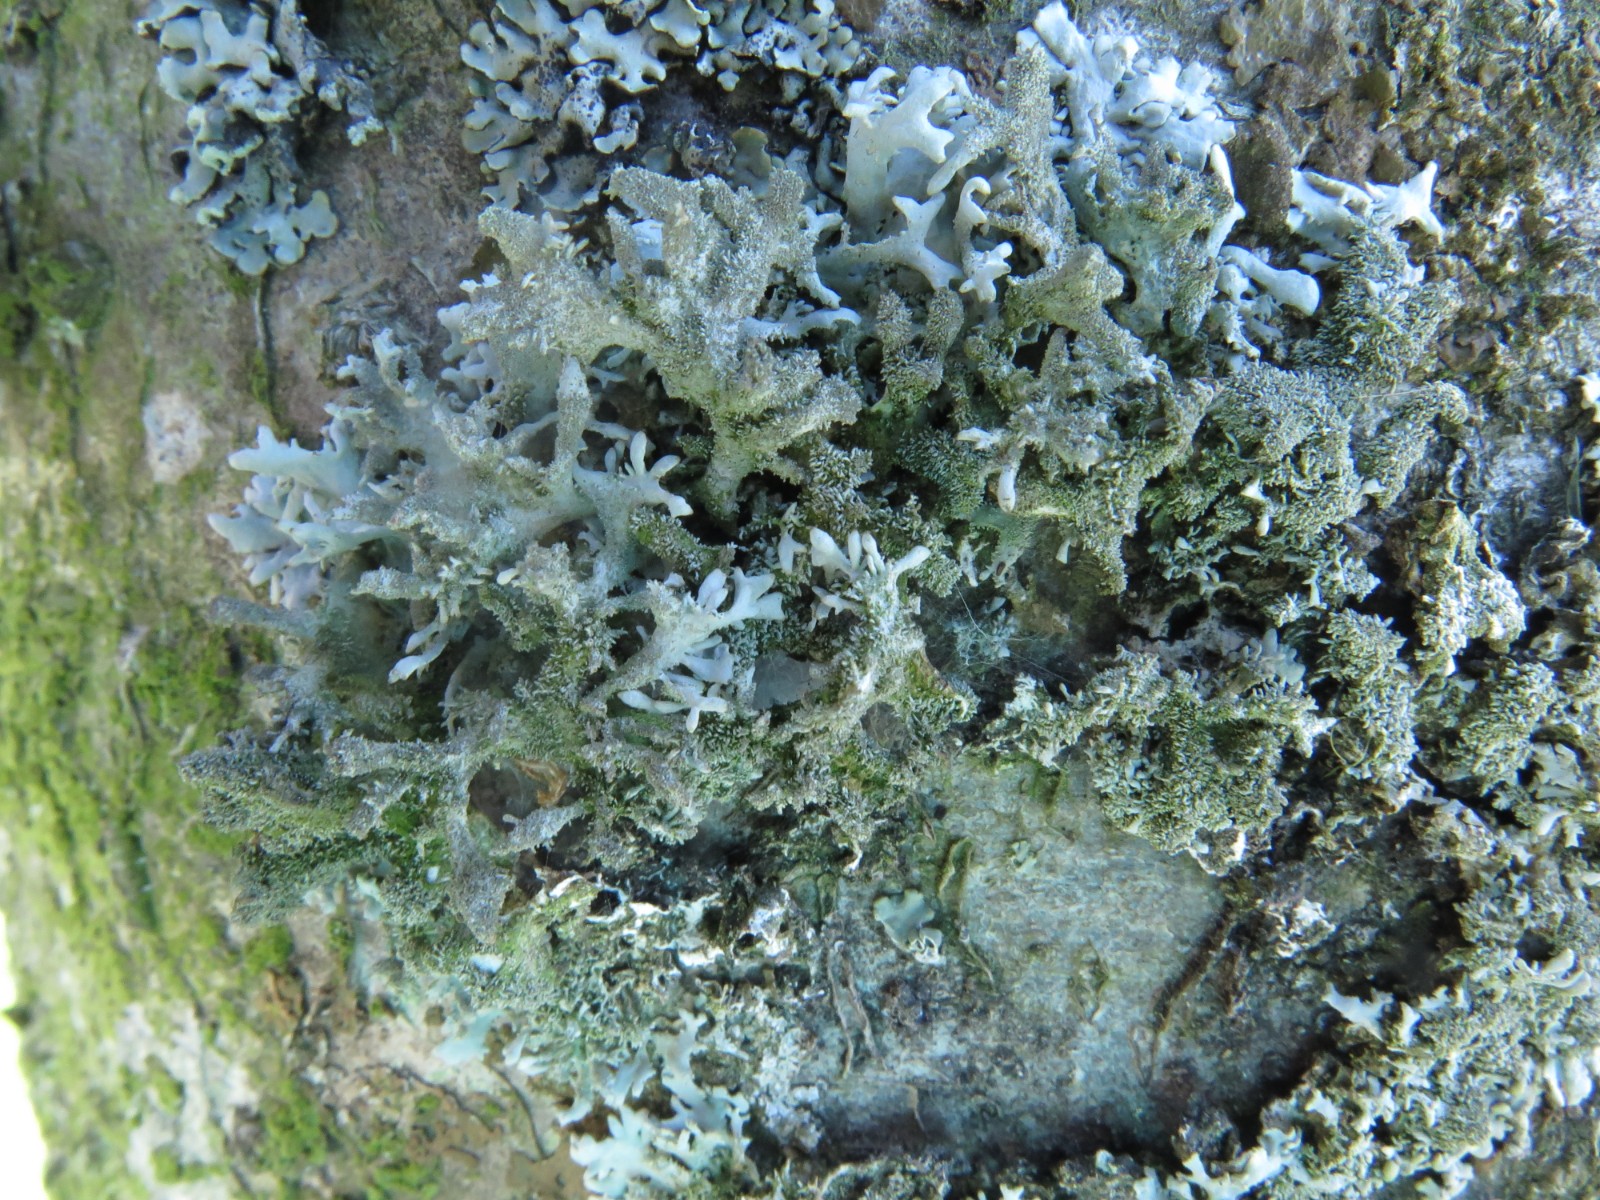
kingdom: Fungi
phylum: Ascomycota
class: Lecanoromycetes
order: Lecanorales
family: Parmeliaceae
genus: Pseudevernia
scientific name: Pseudevernia furfuracea
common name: grå fyrrelav
